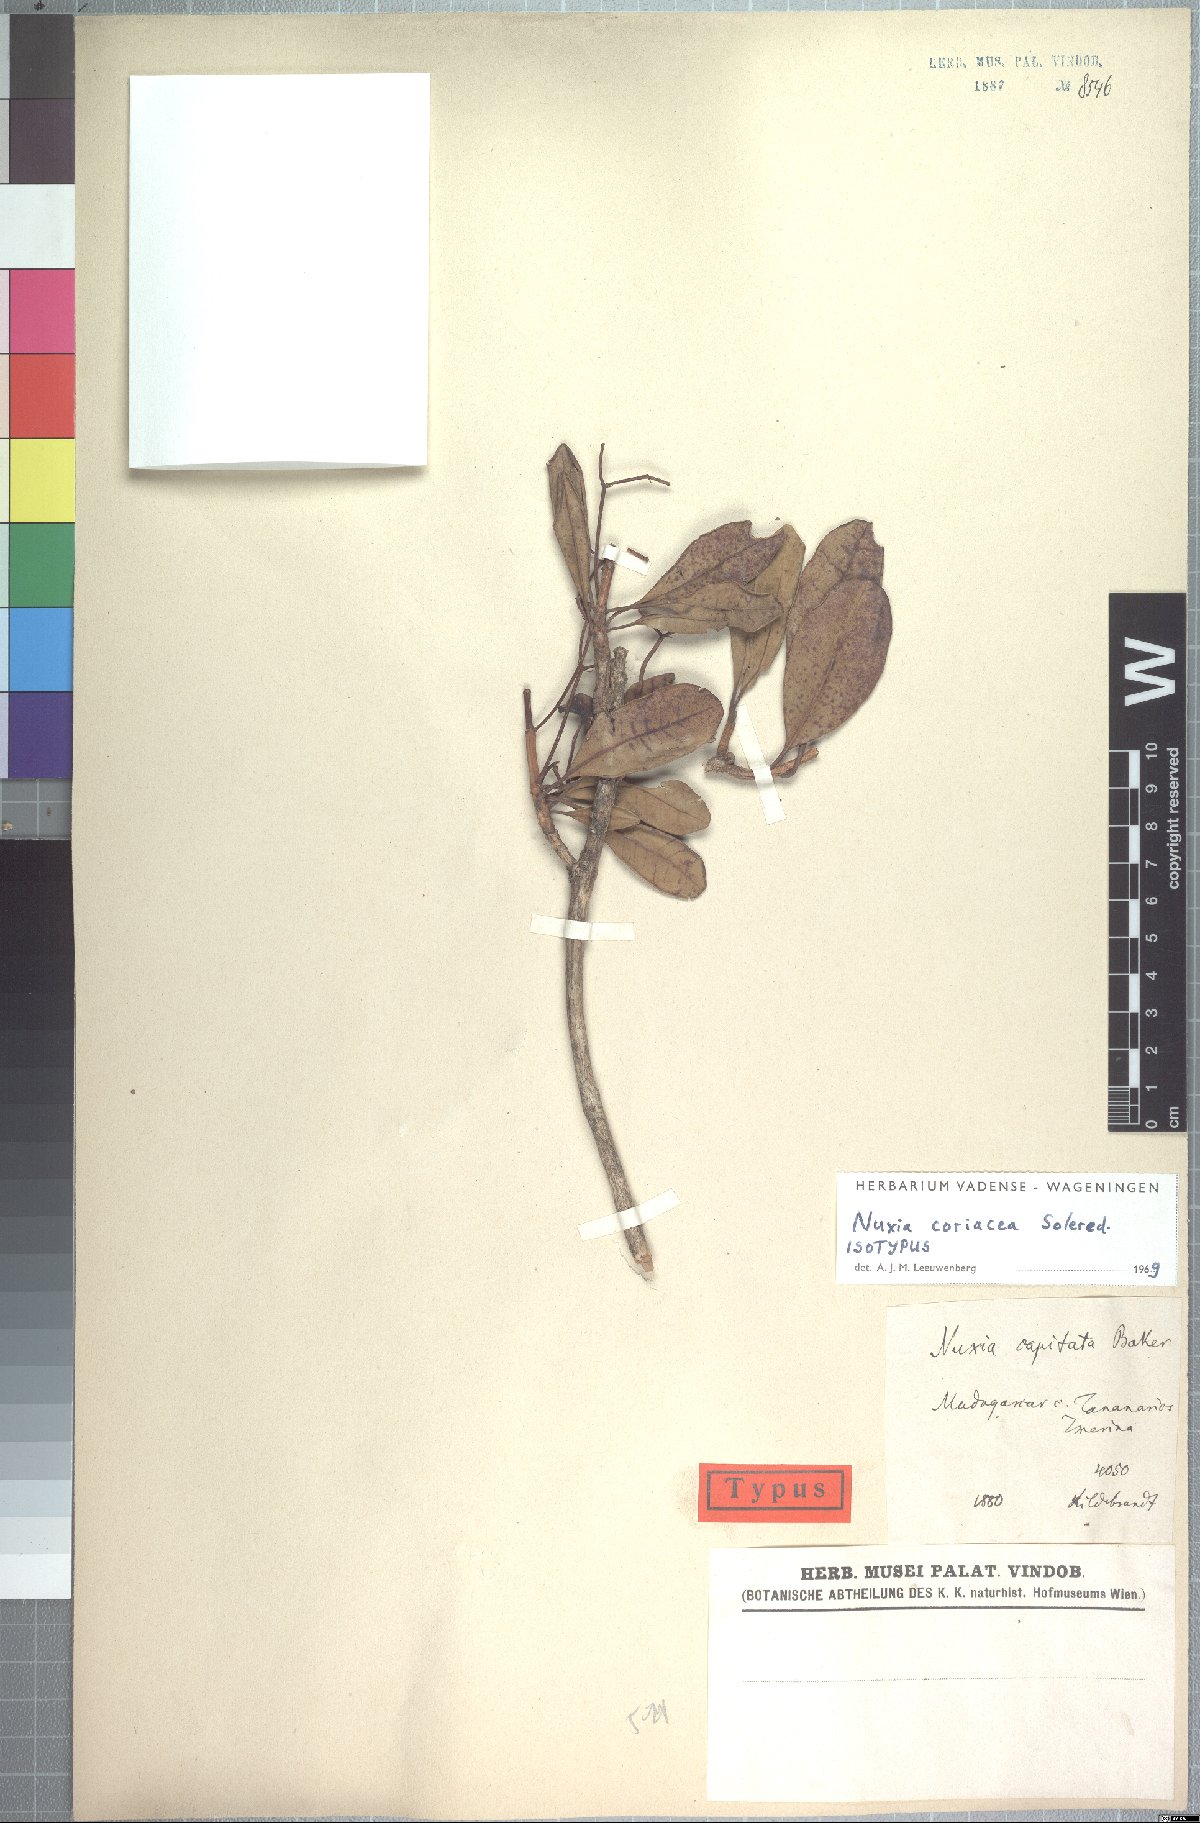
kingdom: Plantae
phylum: Tracheophyta
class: Magnoliopsida
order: Lamiales
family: Stilbaceae
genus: Nuxia
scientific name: Nuxia coriacea
